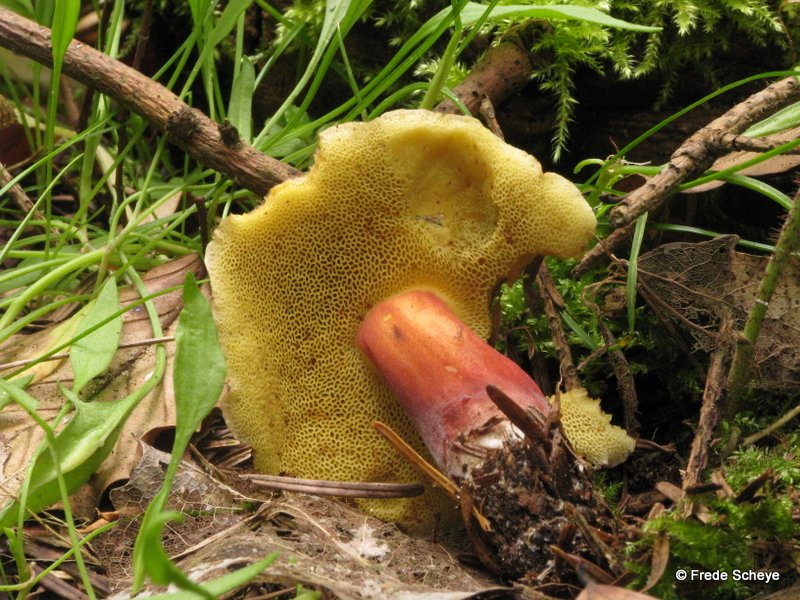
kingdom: Fungi
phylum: Basidiomycota
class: Agaricomycetes
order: Boletales
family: Boletaceae
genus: Xerocomellus
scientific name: Xerocomellus chrysenteron
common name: rødsprukken rørhat
